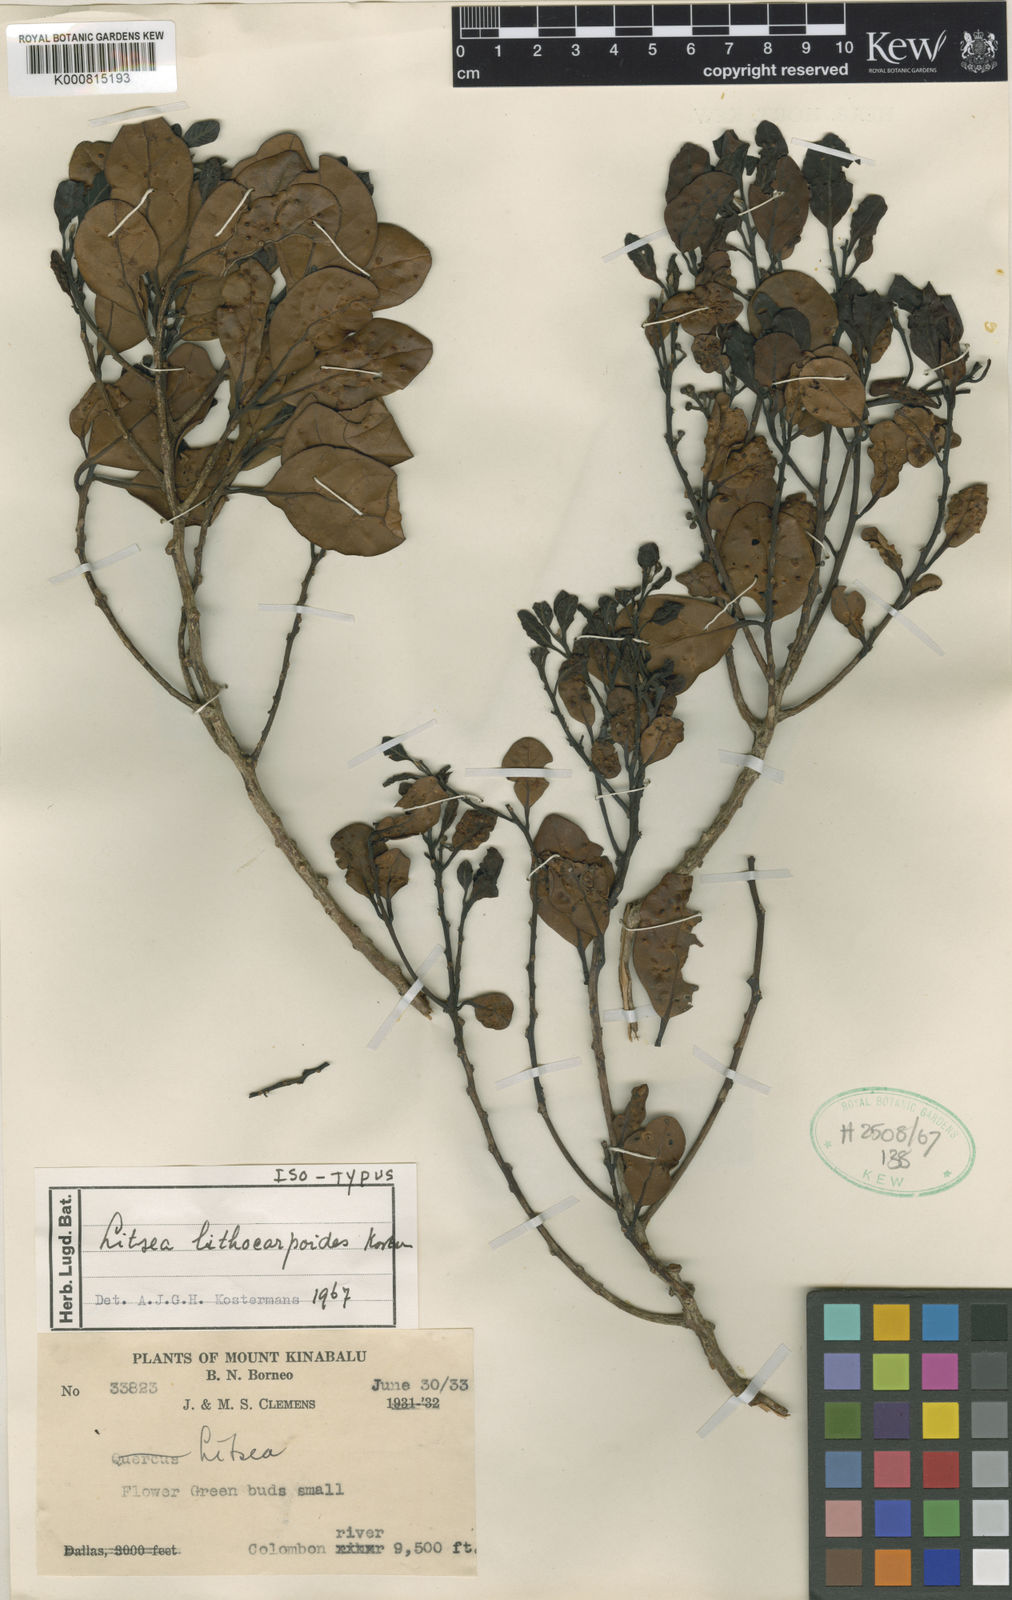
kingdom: Plantae
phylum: Tracheophyta
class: Magnoliopsida
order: Laurales
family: Lauraceae
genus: Litsea
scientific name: Litsea lithocarpoides
